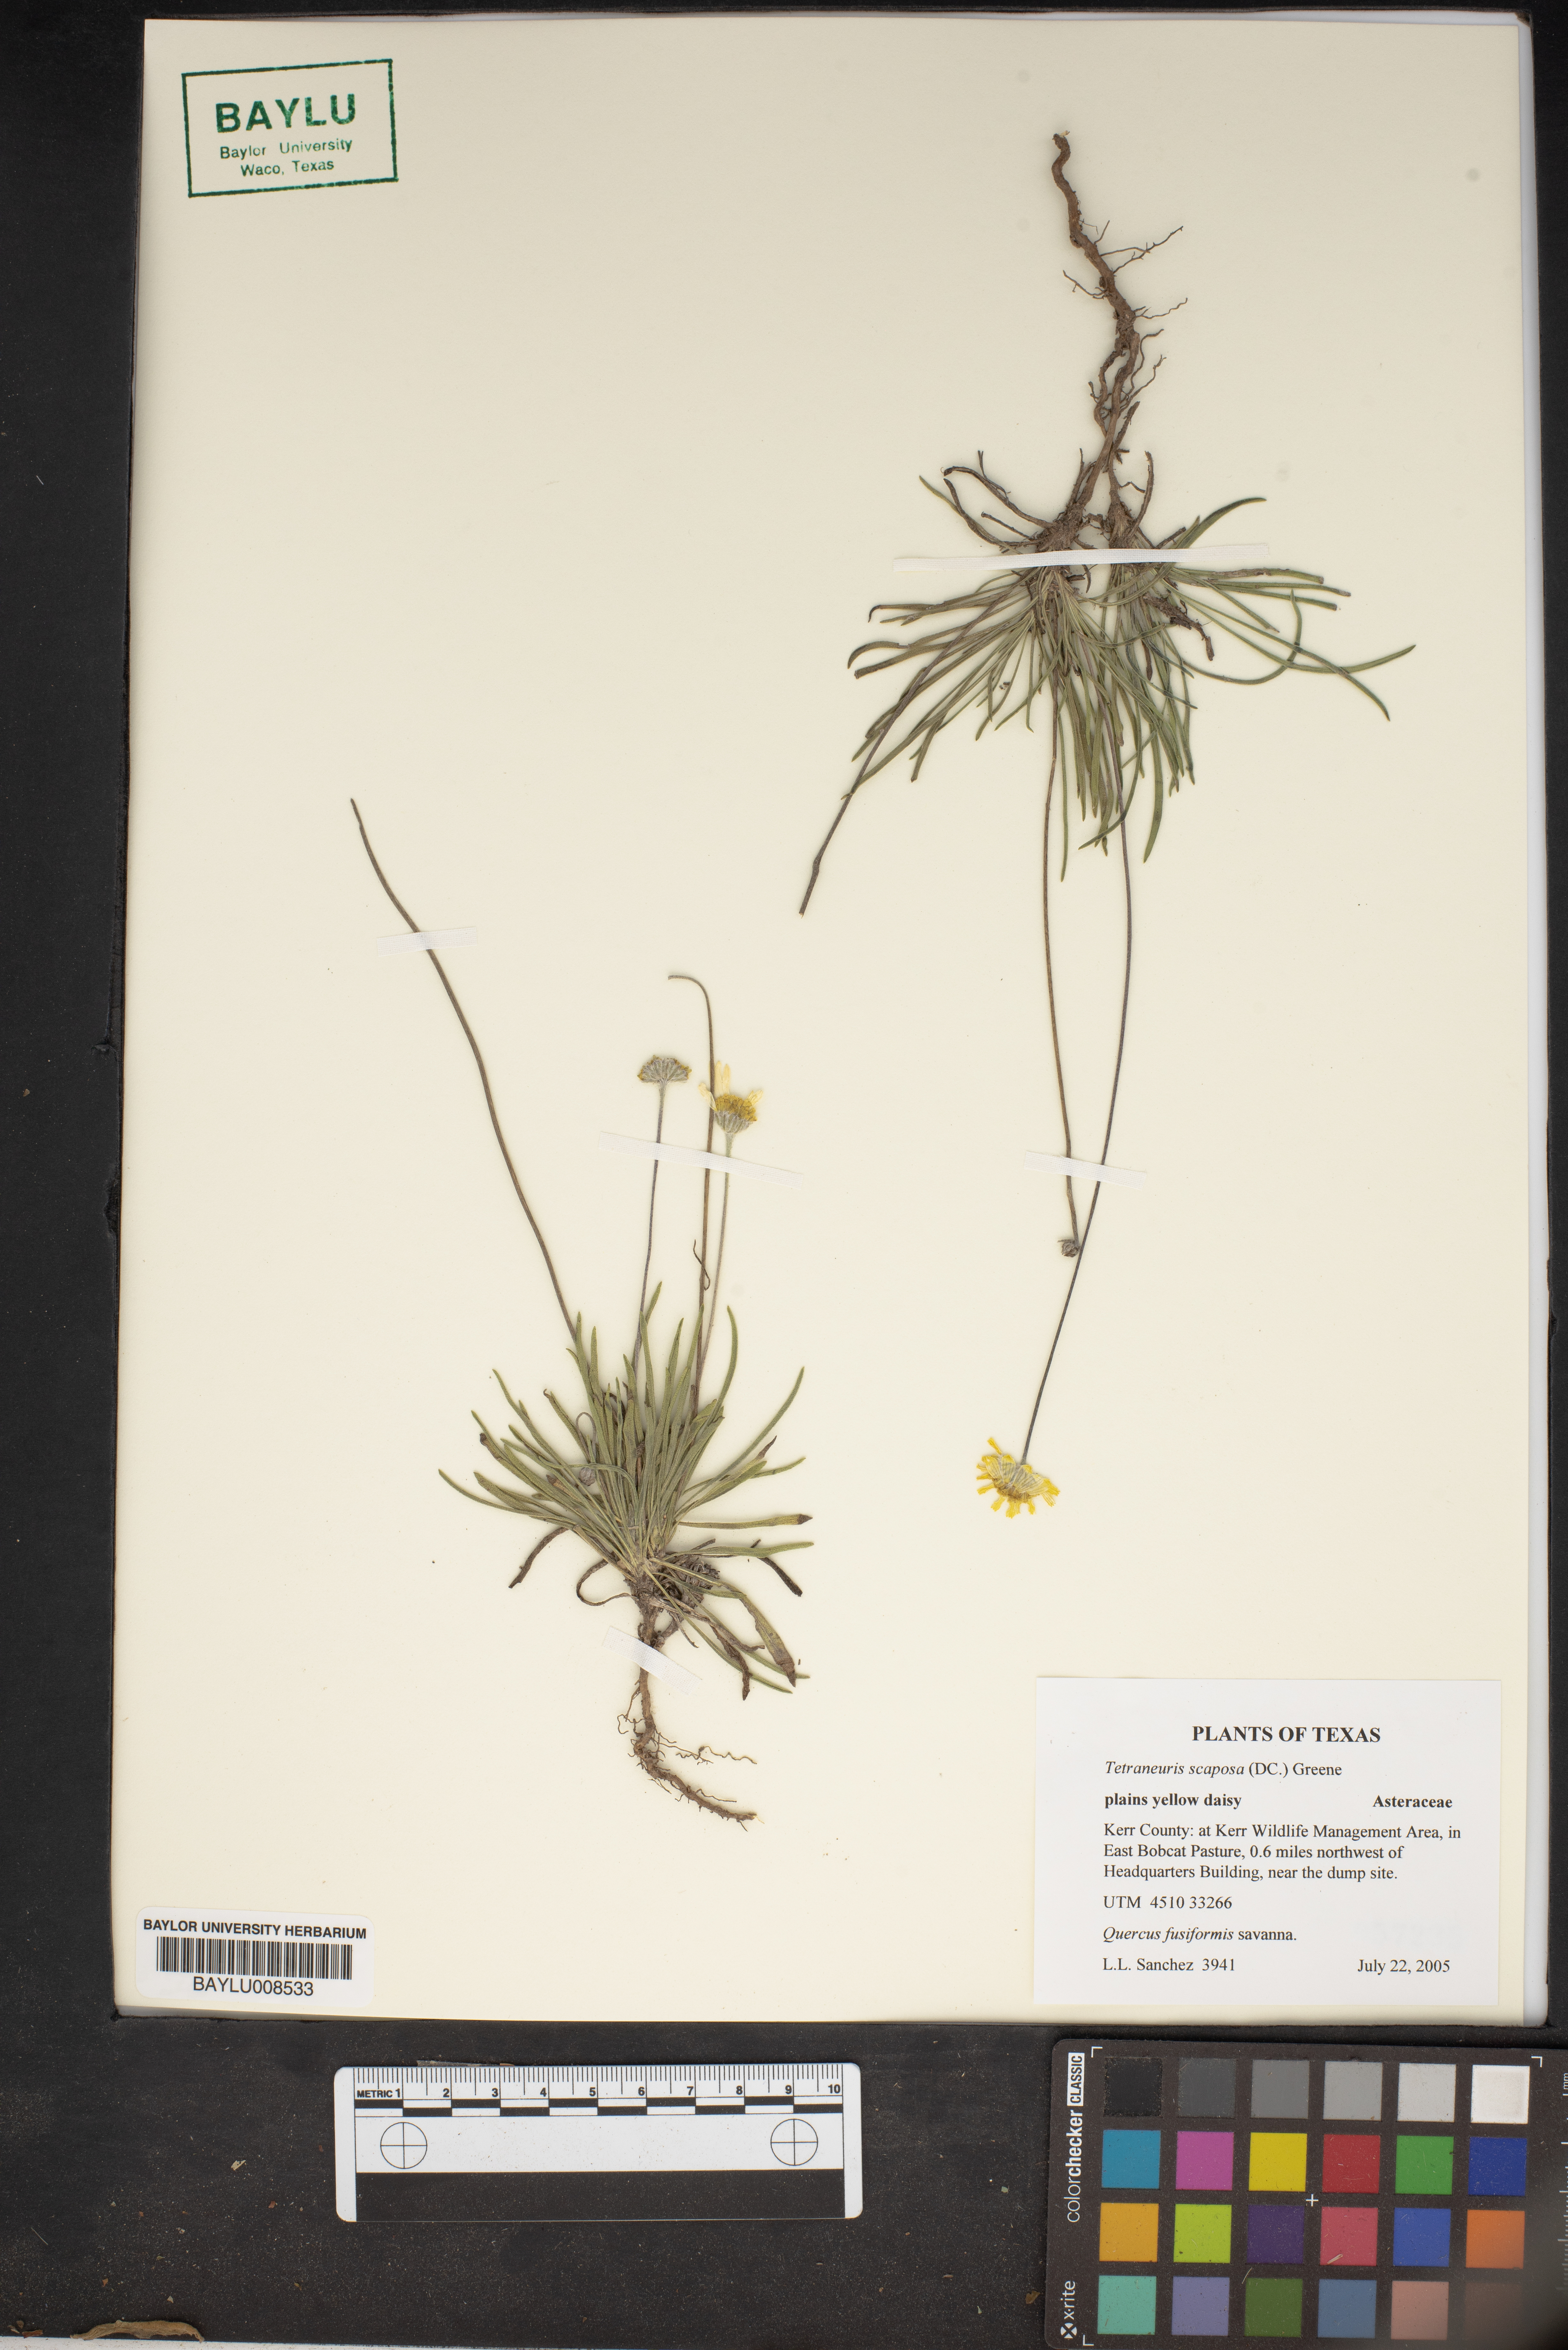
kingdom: Plantae
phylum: Tracheophyta
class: Magnoliopsida
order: Asterales
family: Asteraceae
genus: Tetraneuris
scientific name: Tetraneuris scaposa
